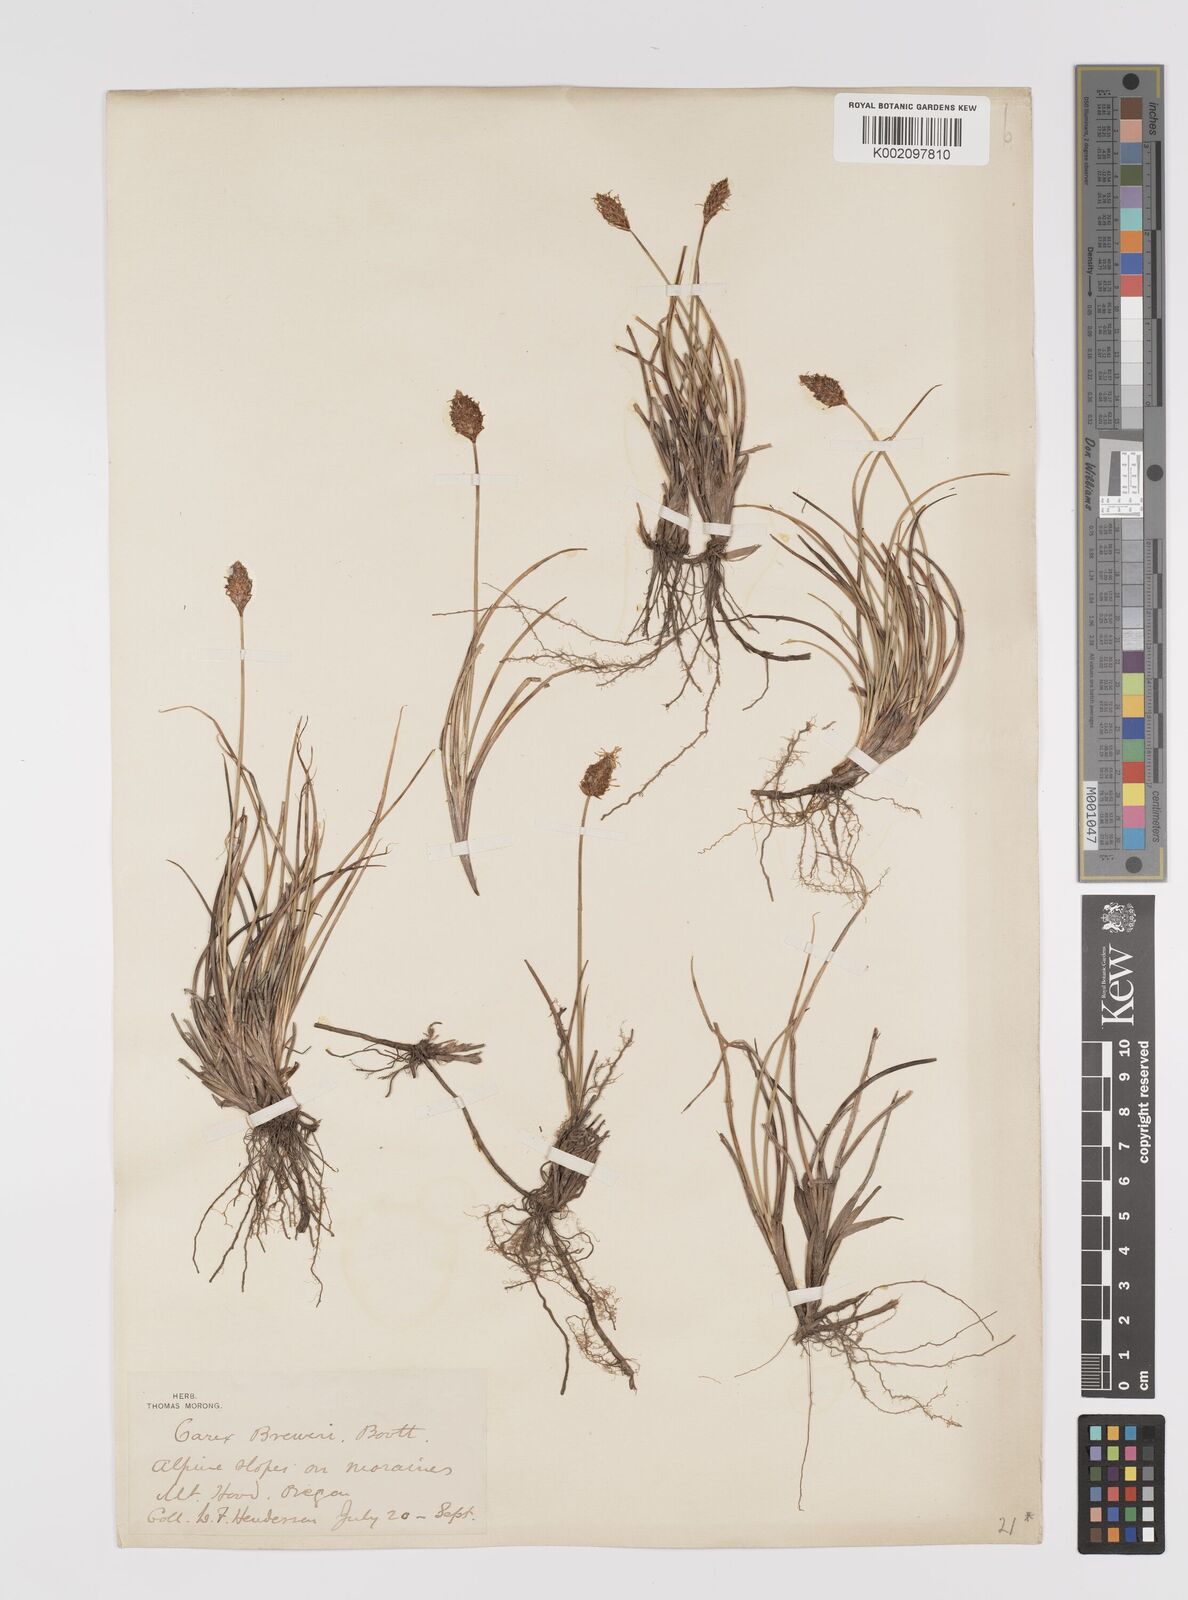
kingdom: Plantae
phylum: Tracheophyta
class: Liliopsida
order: Poales
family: Cyperaceae
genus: Carex
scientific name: Carex breweri
